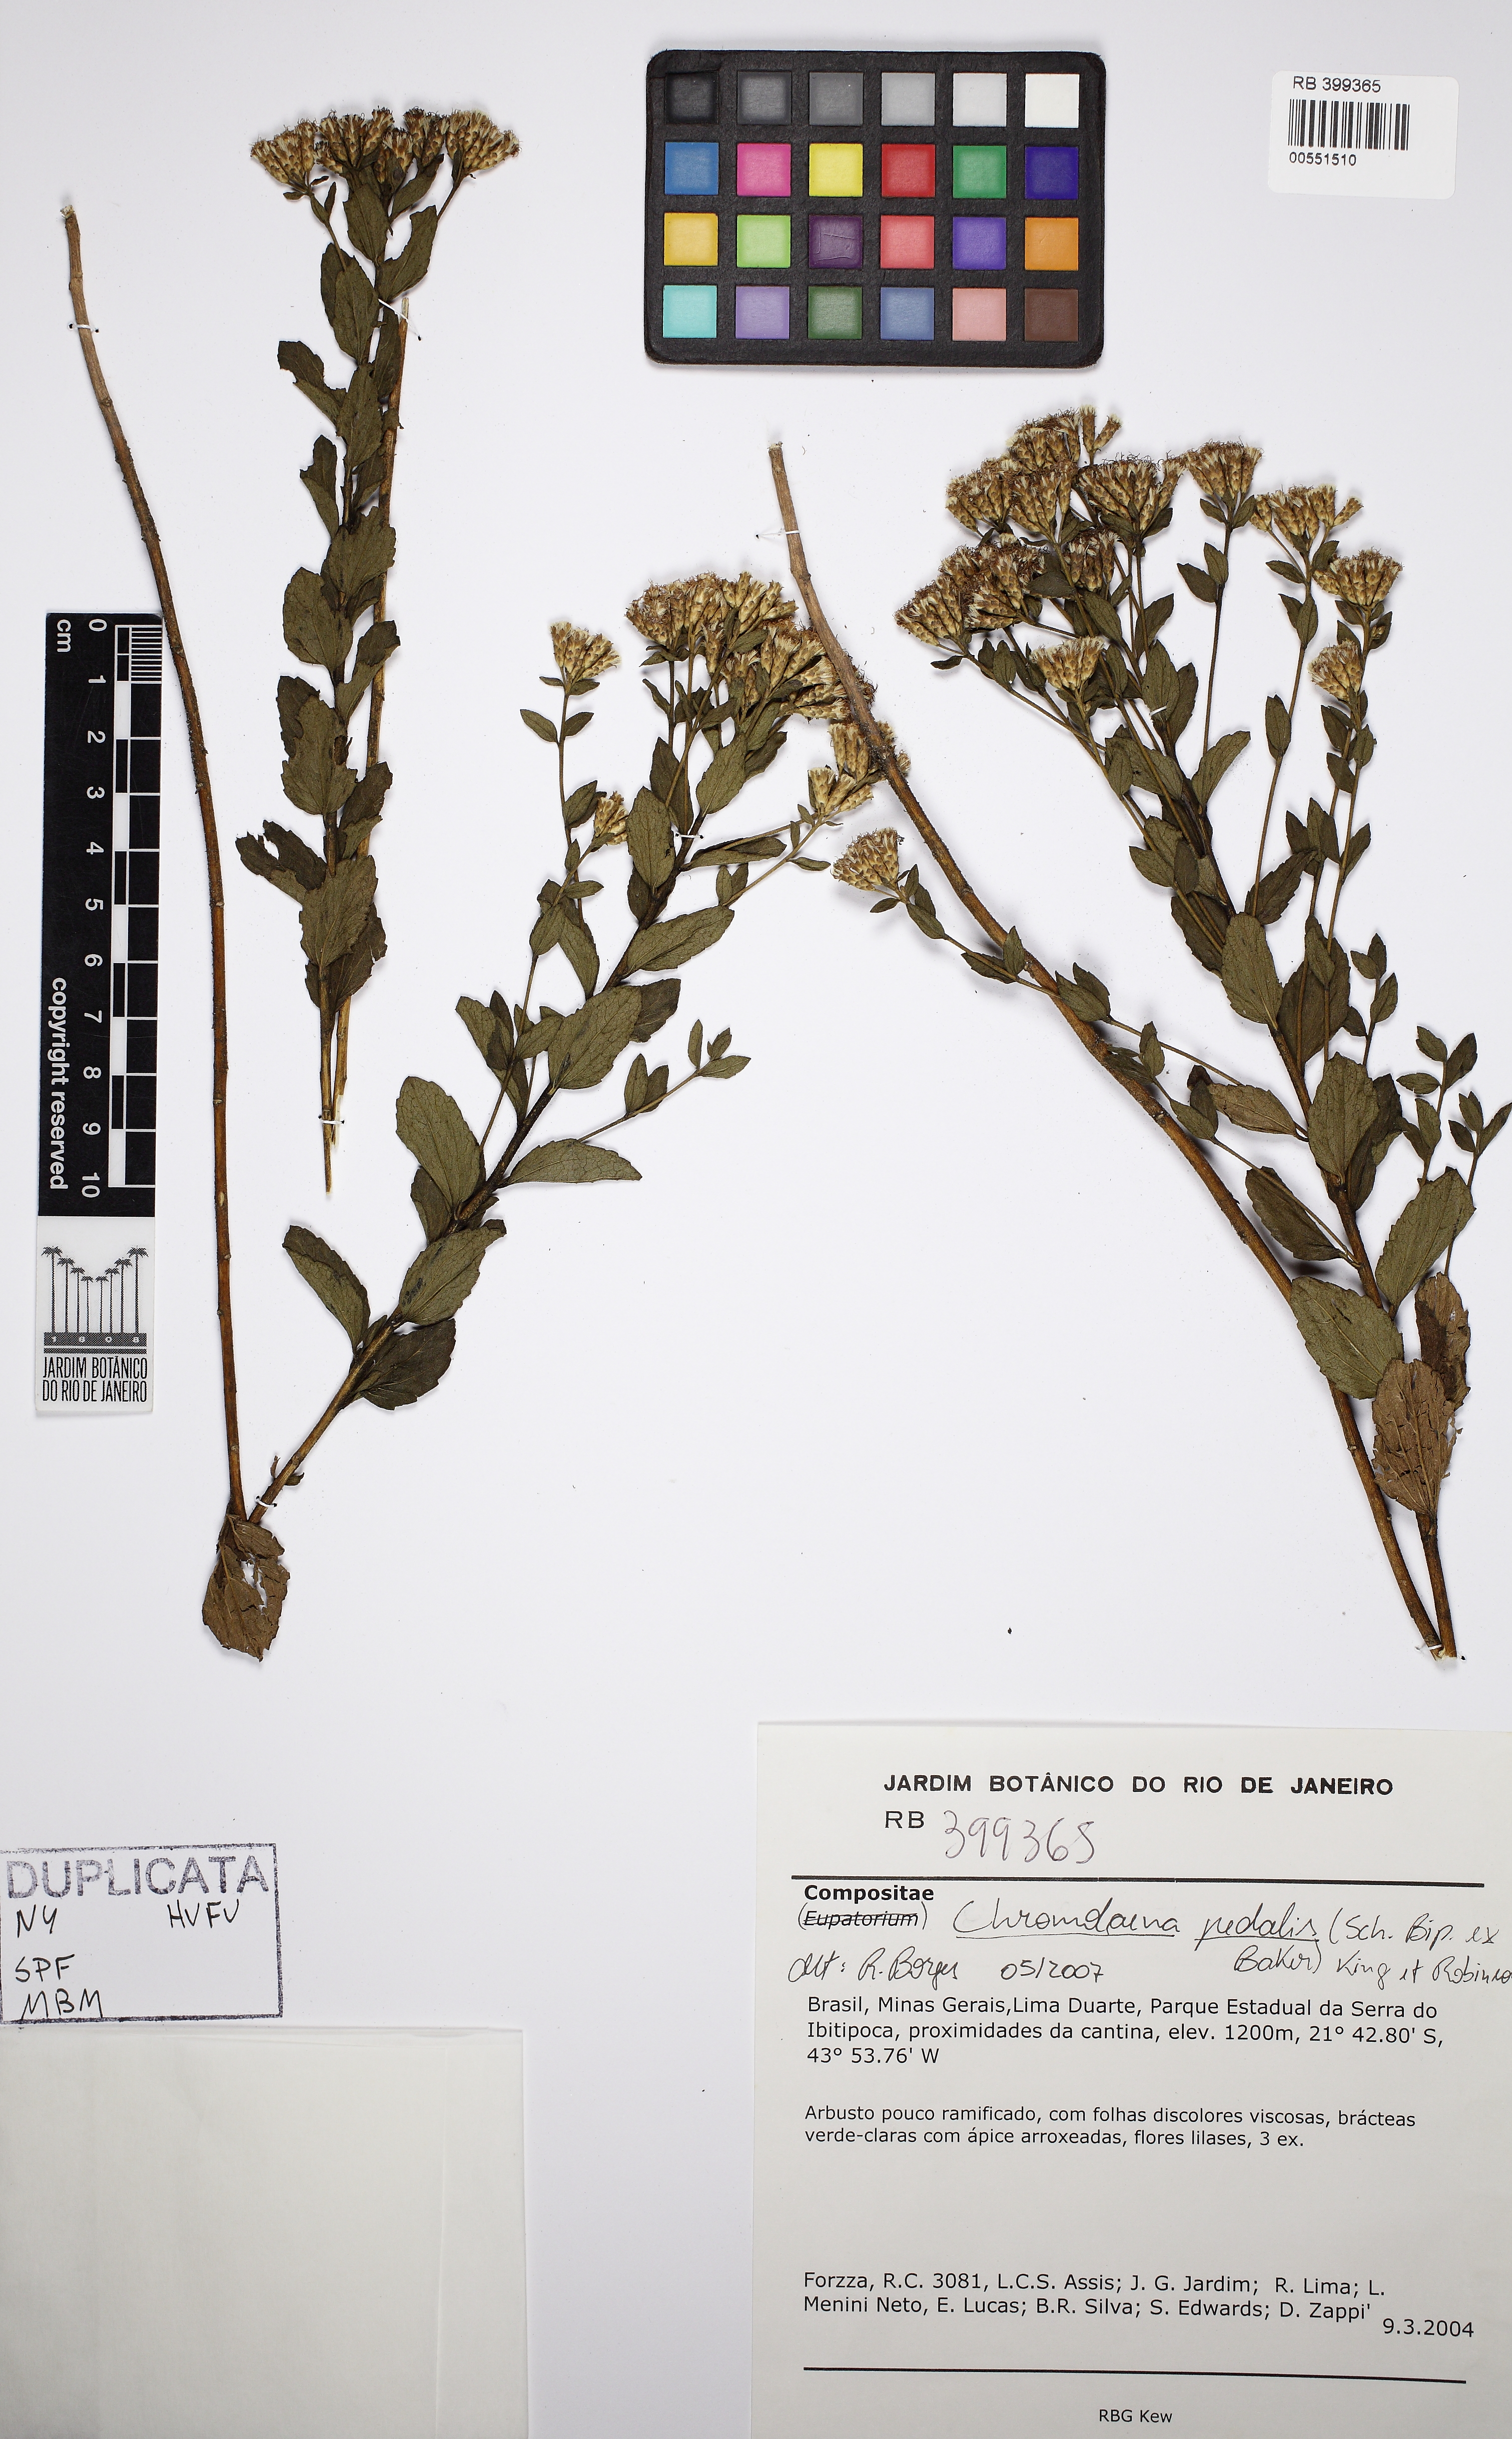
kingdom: Plantae
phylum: Tracheophyta
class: Magnoliopsida
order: Asterales
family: Asteraceae
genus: Chromolaena
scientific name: Chromolaena pedalis
